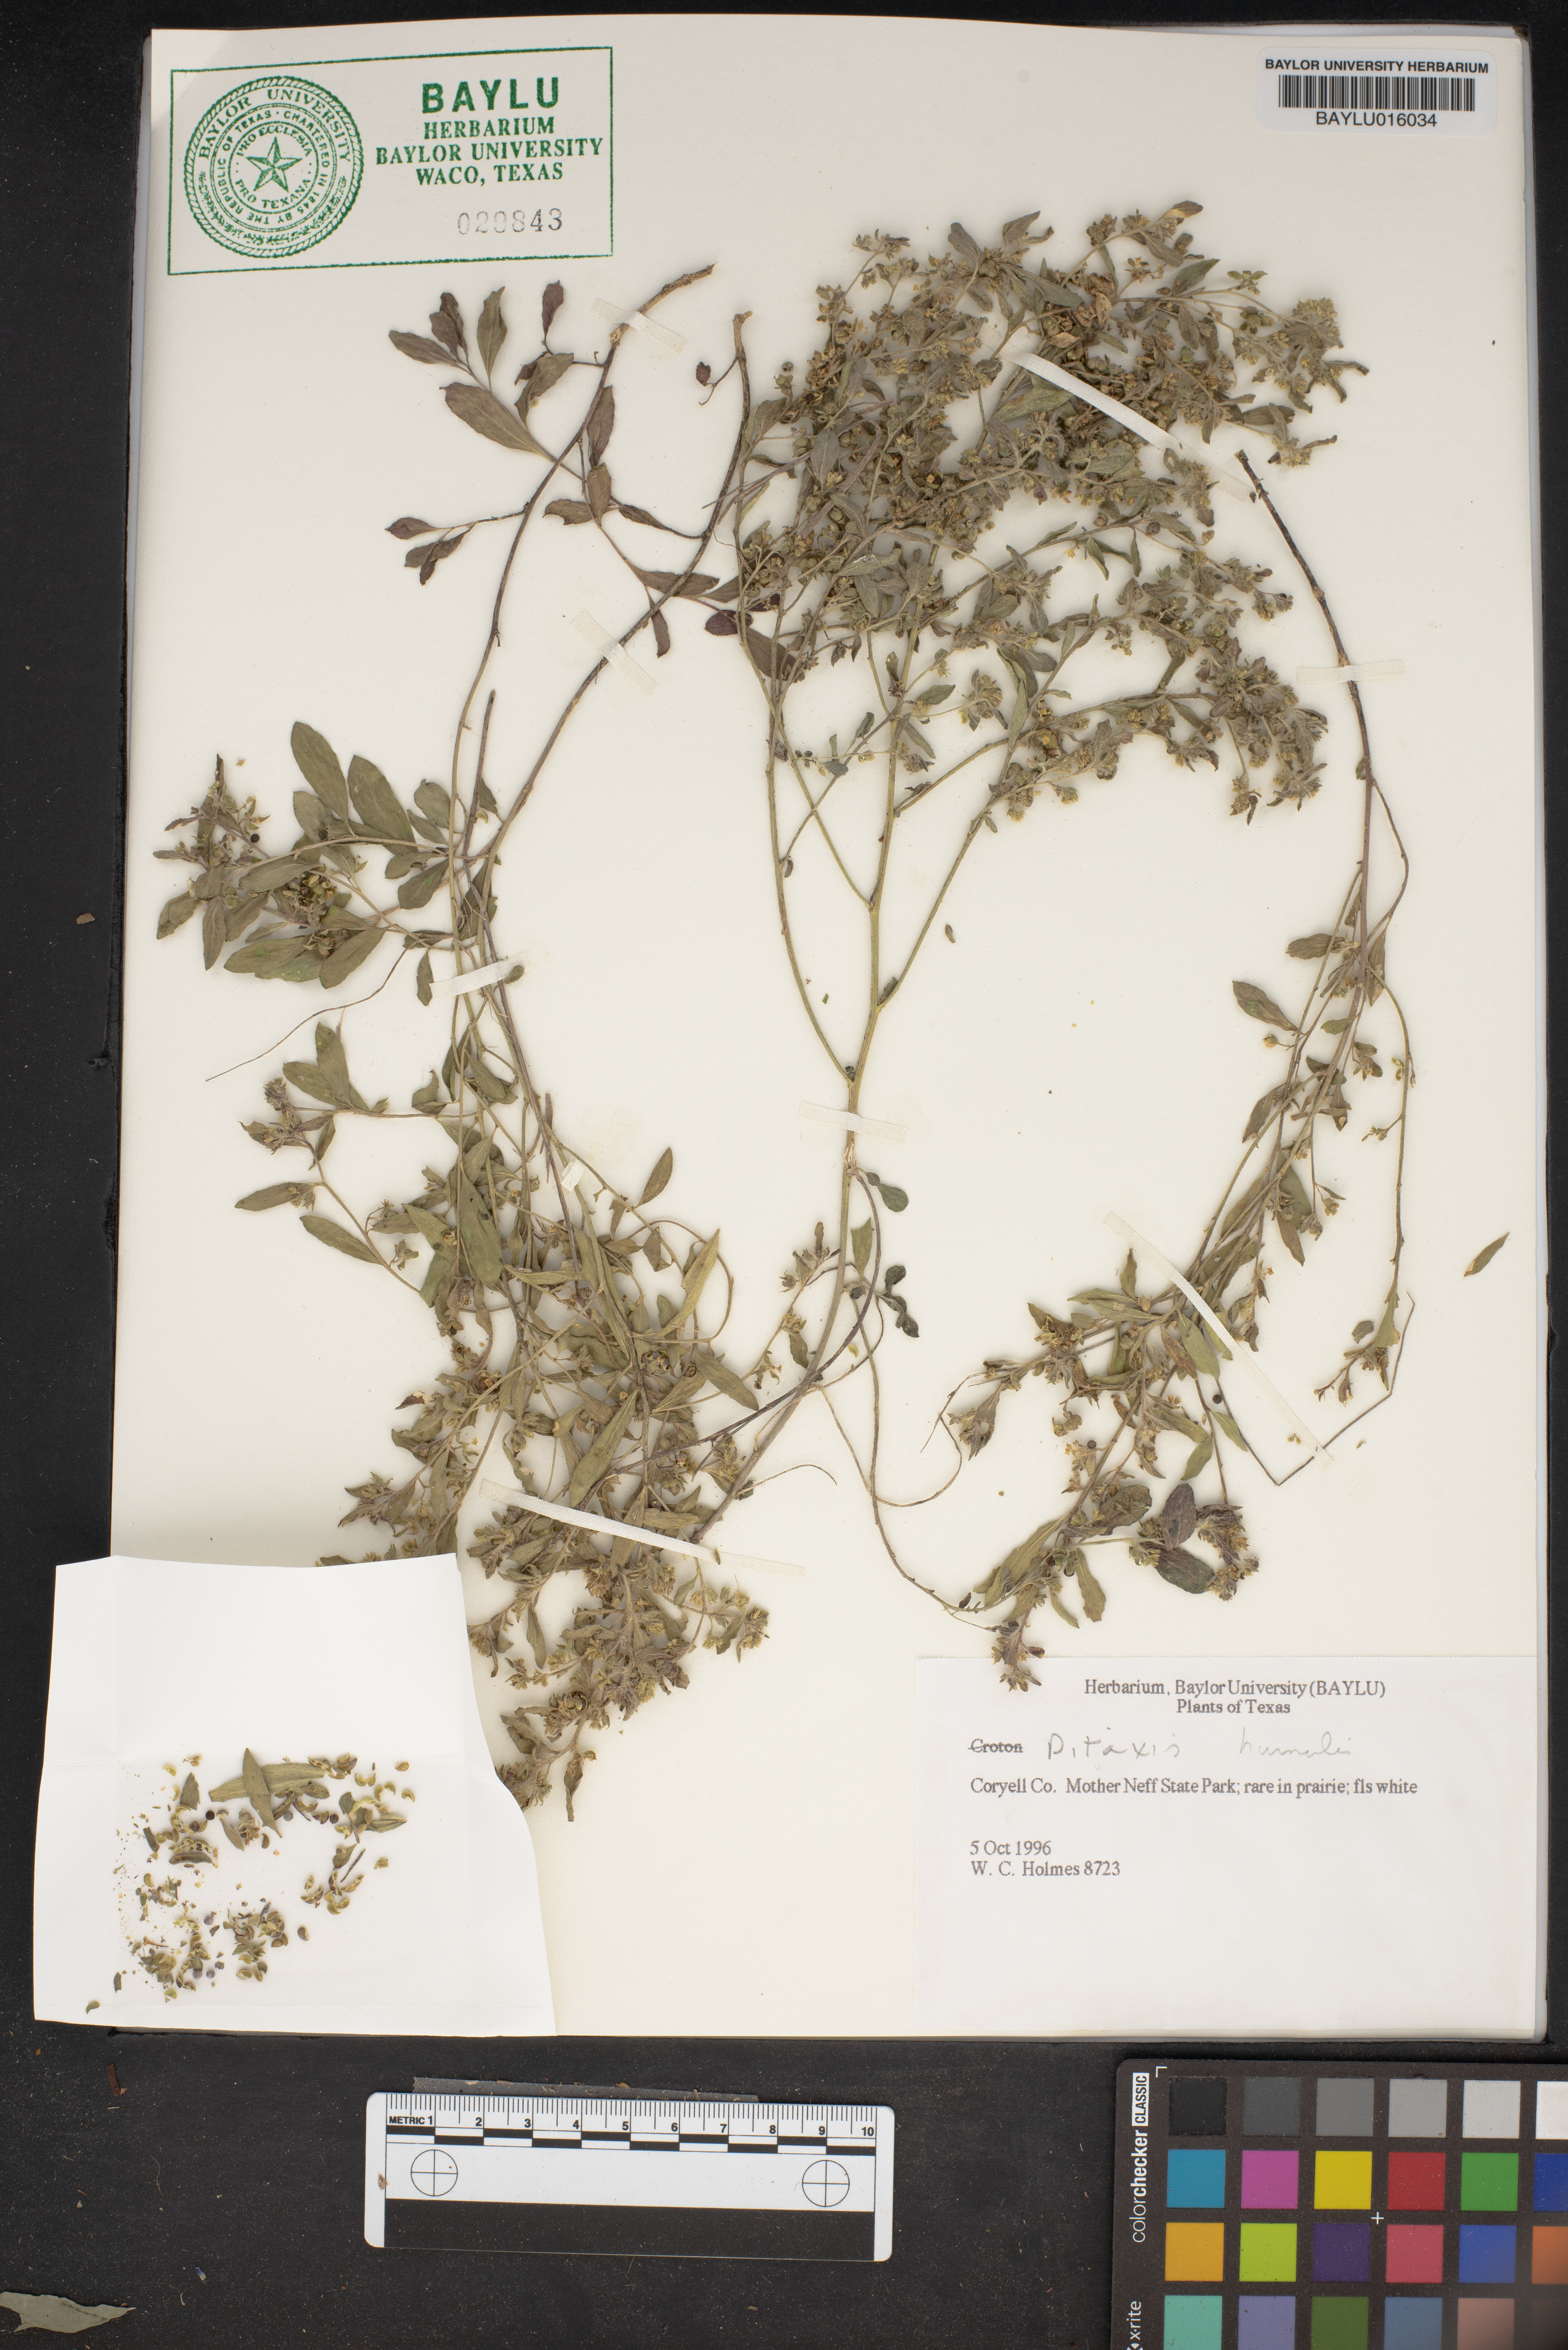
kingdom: Plantae
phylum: Tracheophyta
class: Magnoliopsida
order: Malpighiales
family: Euphorbiaceae
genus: Ditaxis
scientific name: Ditaxis humilis
